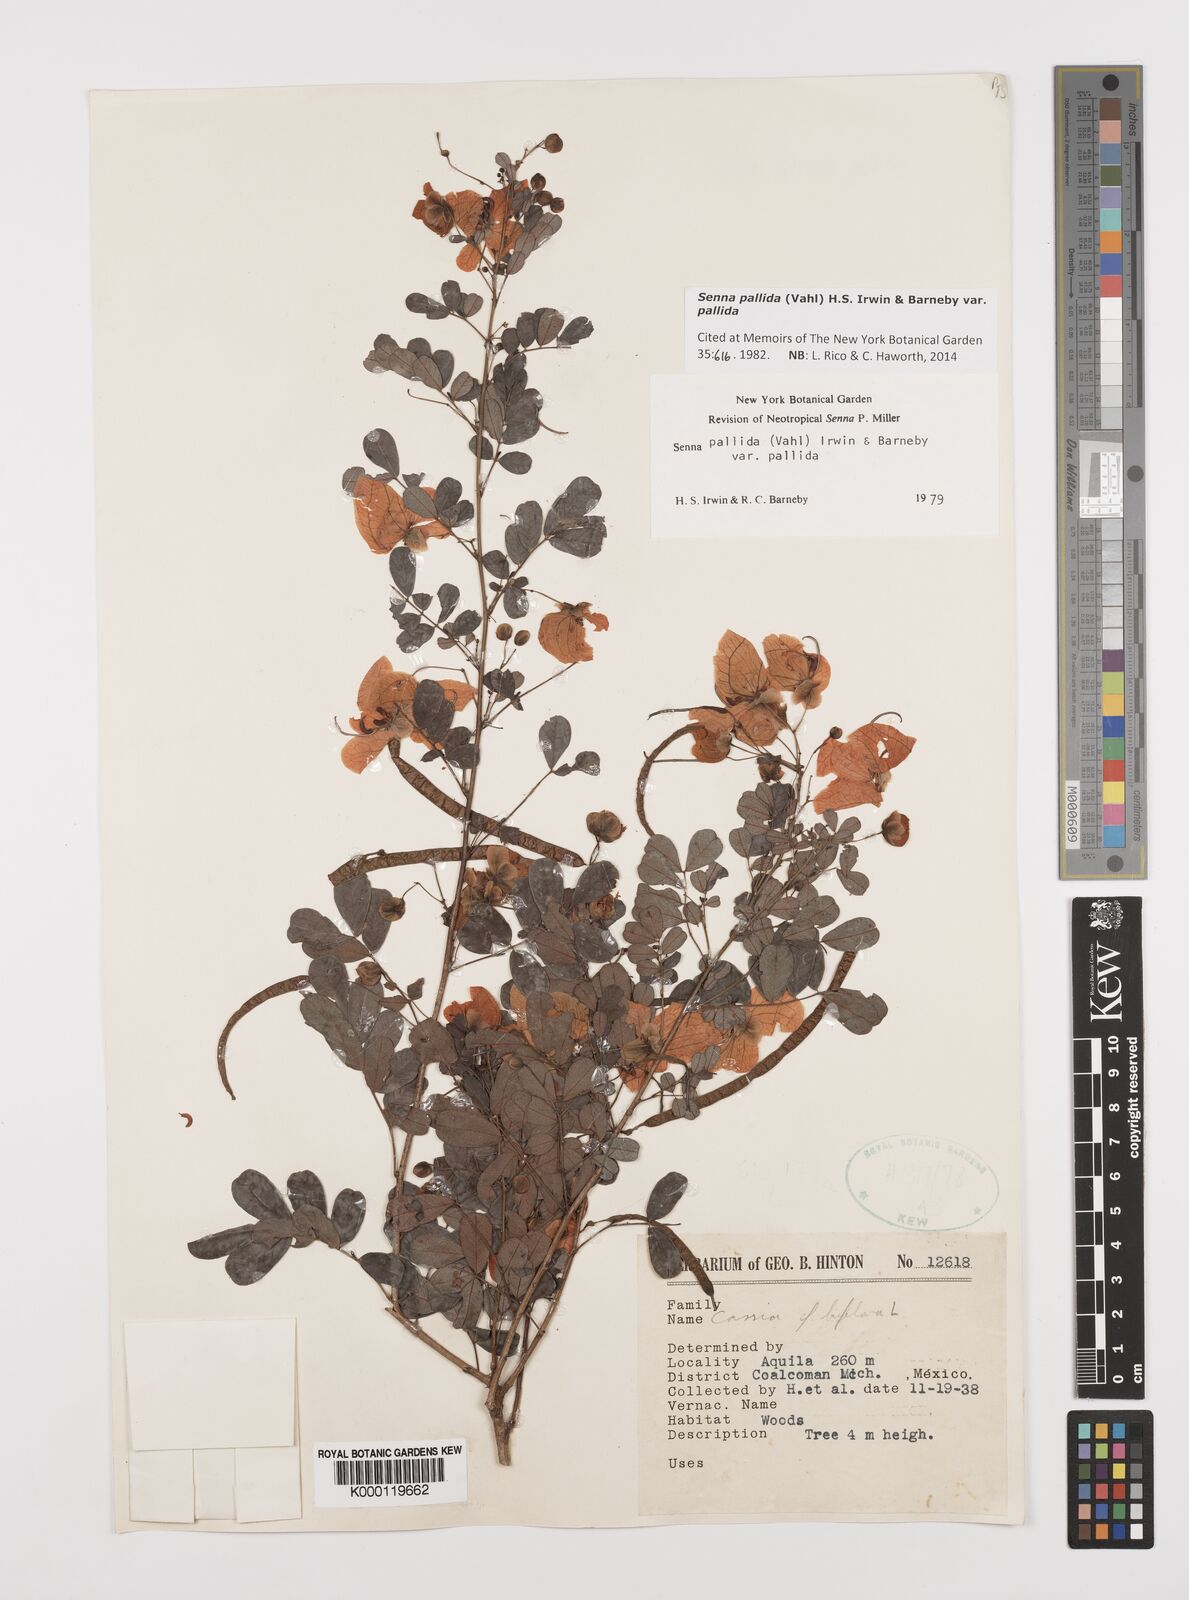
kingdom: Plantae
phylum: Tracheophyta
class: Magnoliopsida
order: Fabales
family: Fabaceae
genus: Senna
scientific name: Senna pallida
